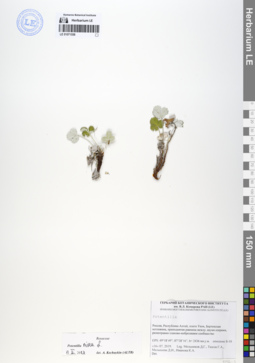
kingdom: Plantae
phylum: Tracheophyta
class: Magnoliopsida
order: Rosales
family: Rosaceae
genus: Potentilla
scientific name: Potentilla nivea
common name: Snow cinquefoil
